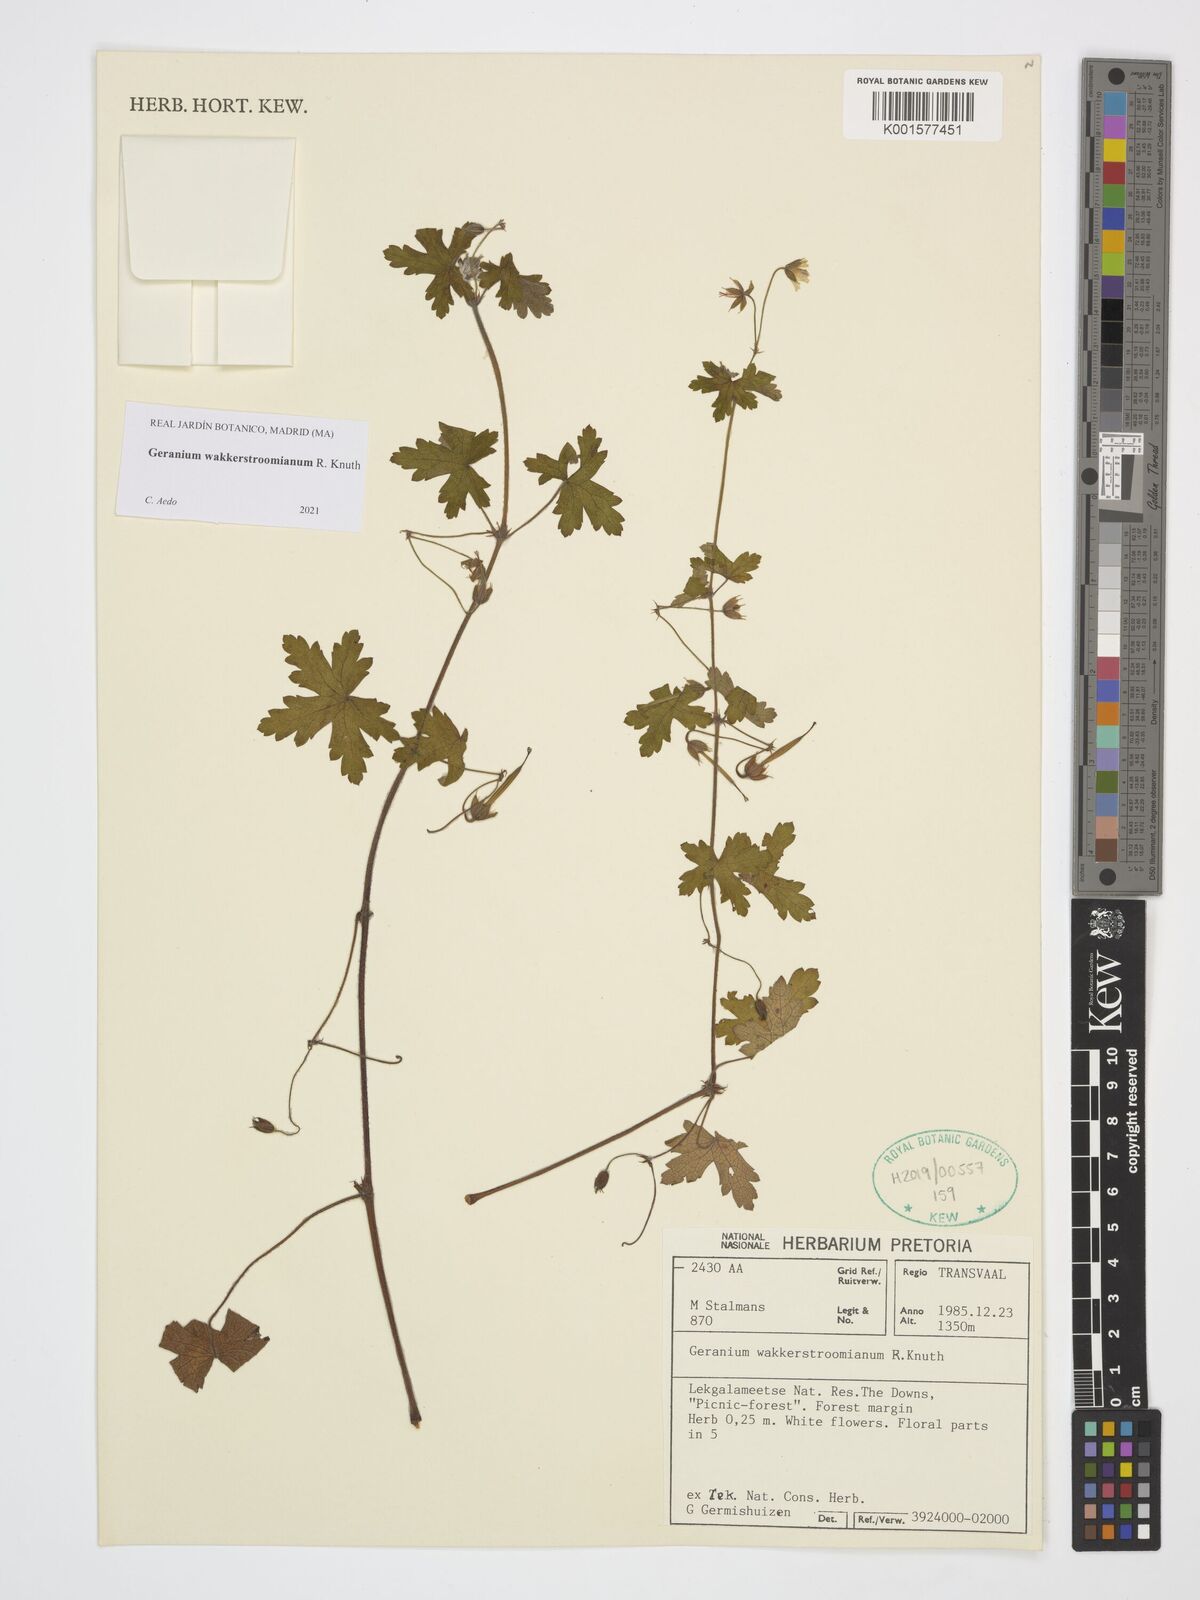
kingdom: Plantae
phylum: Tracheophyta
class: Magnoliopsida
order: Geraniales
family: Geraniaceae
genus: Geranium
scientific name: Geranium wakkerstroomianum
